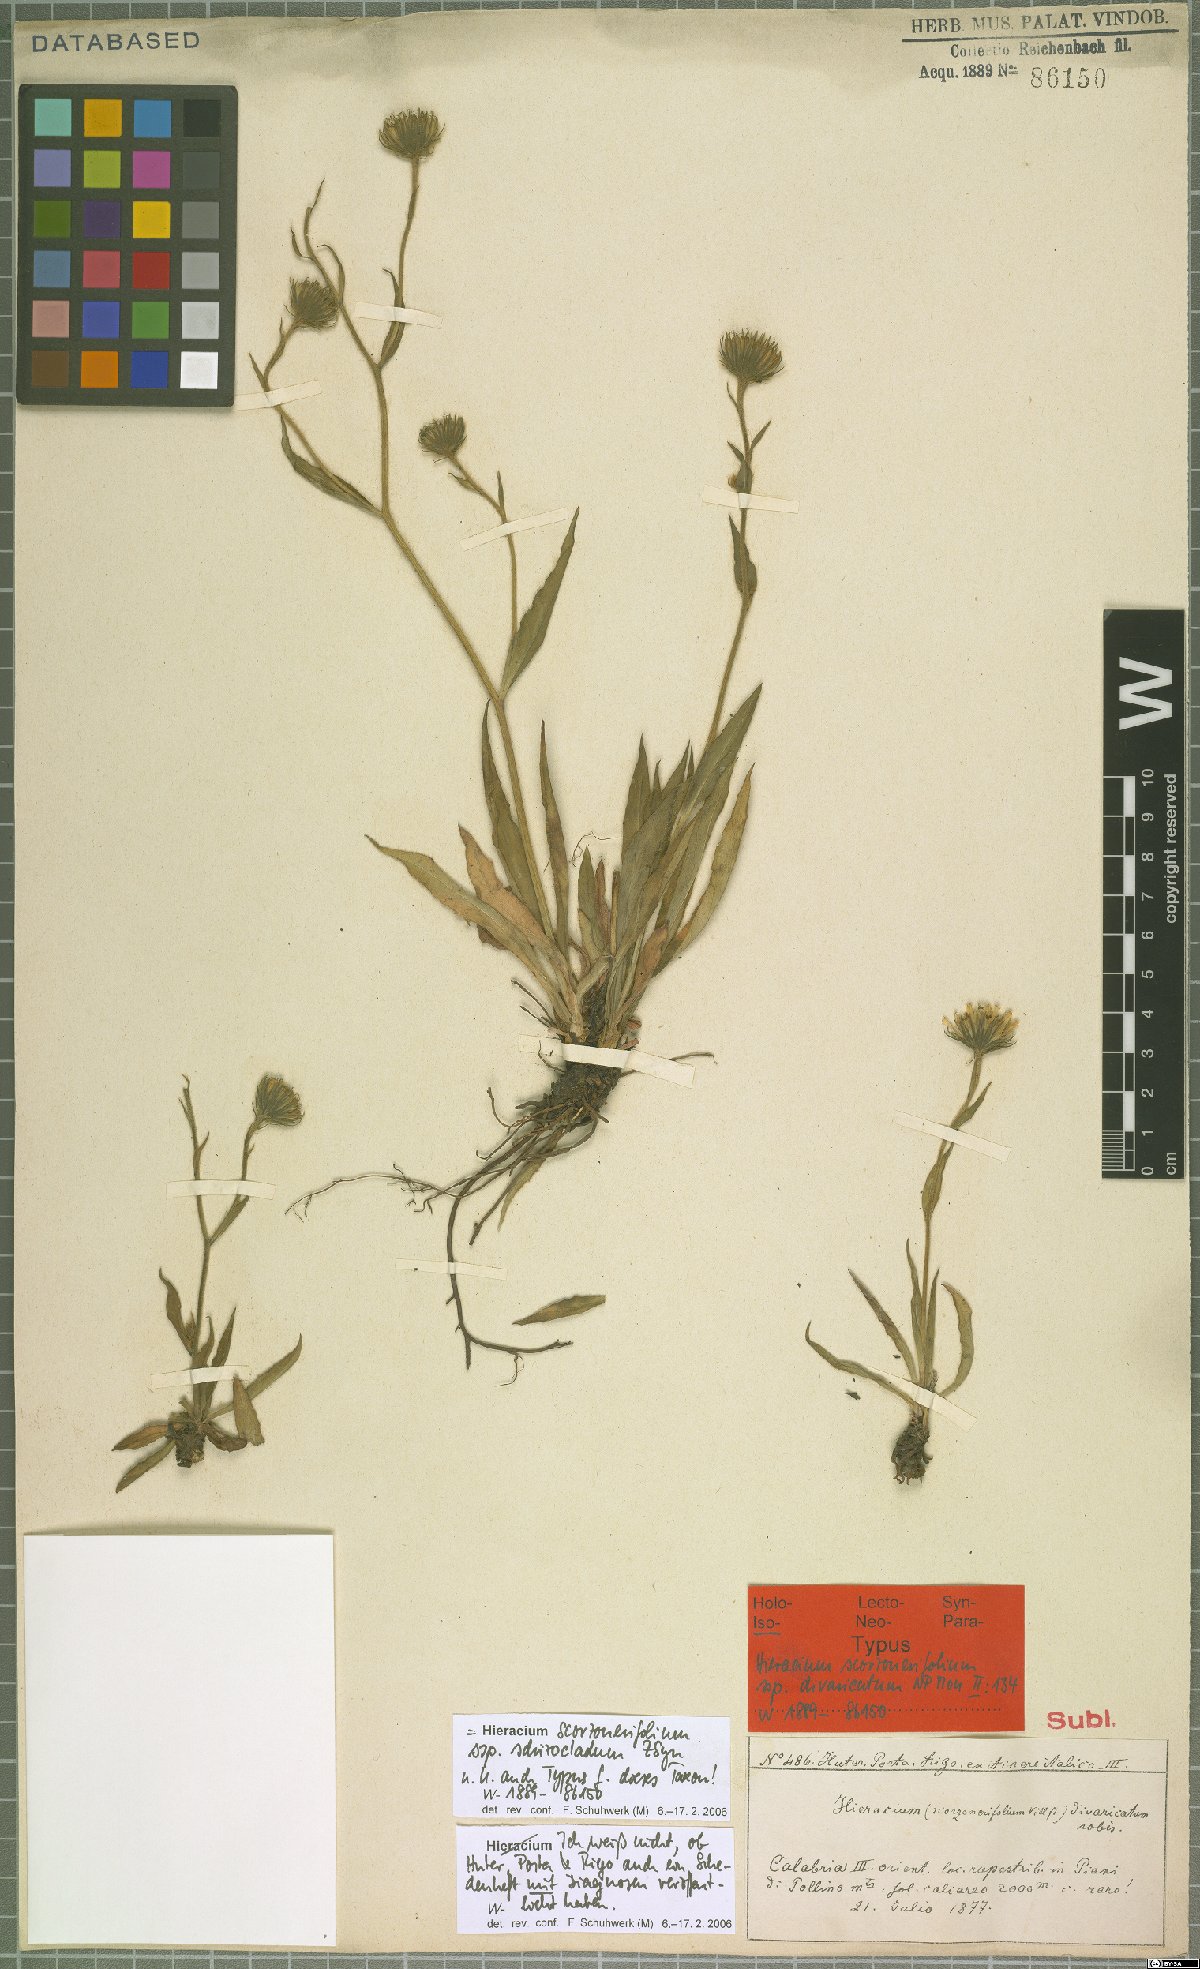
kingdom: Plantae
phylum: Tracheophyta
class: Magnoliopsida
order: Asterales
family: Asteraceae
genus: Hieracium
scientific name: Hieracium scorzonerifolium
